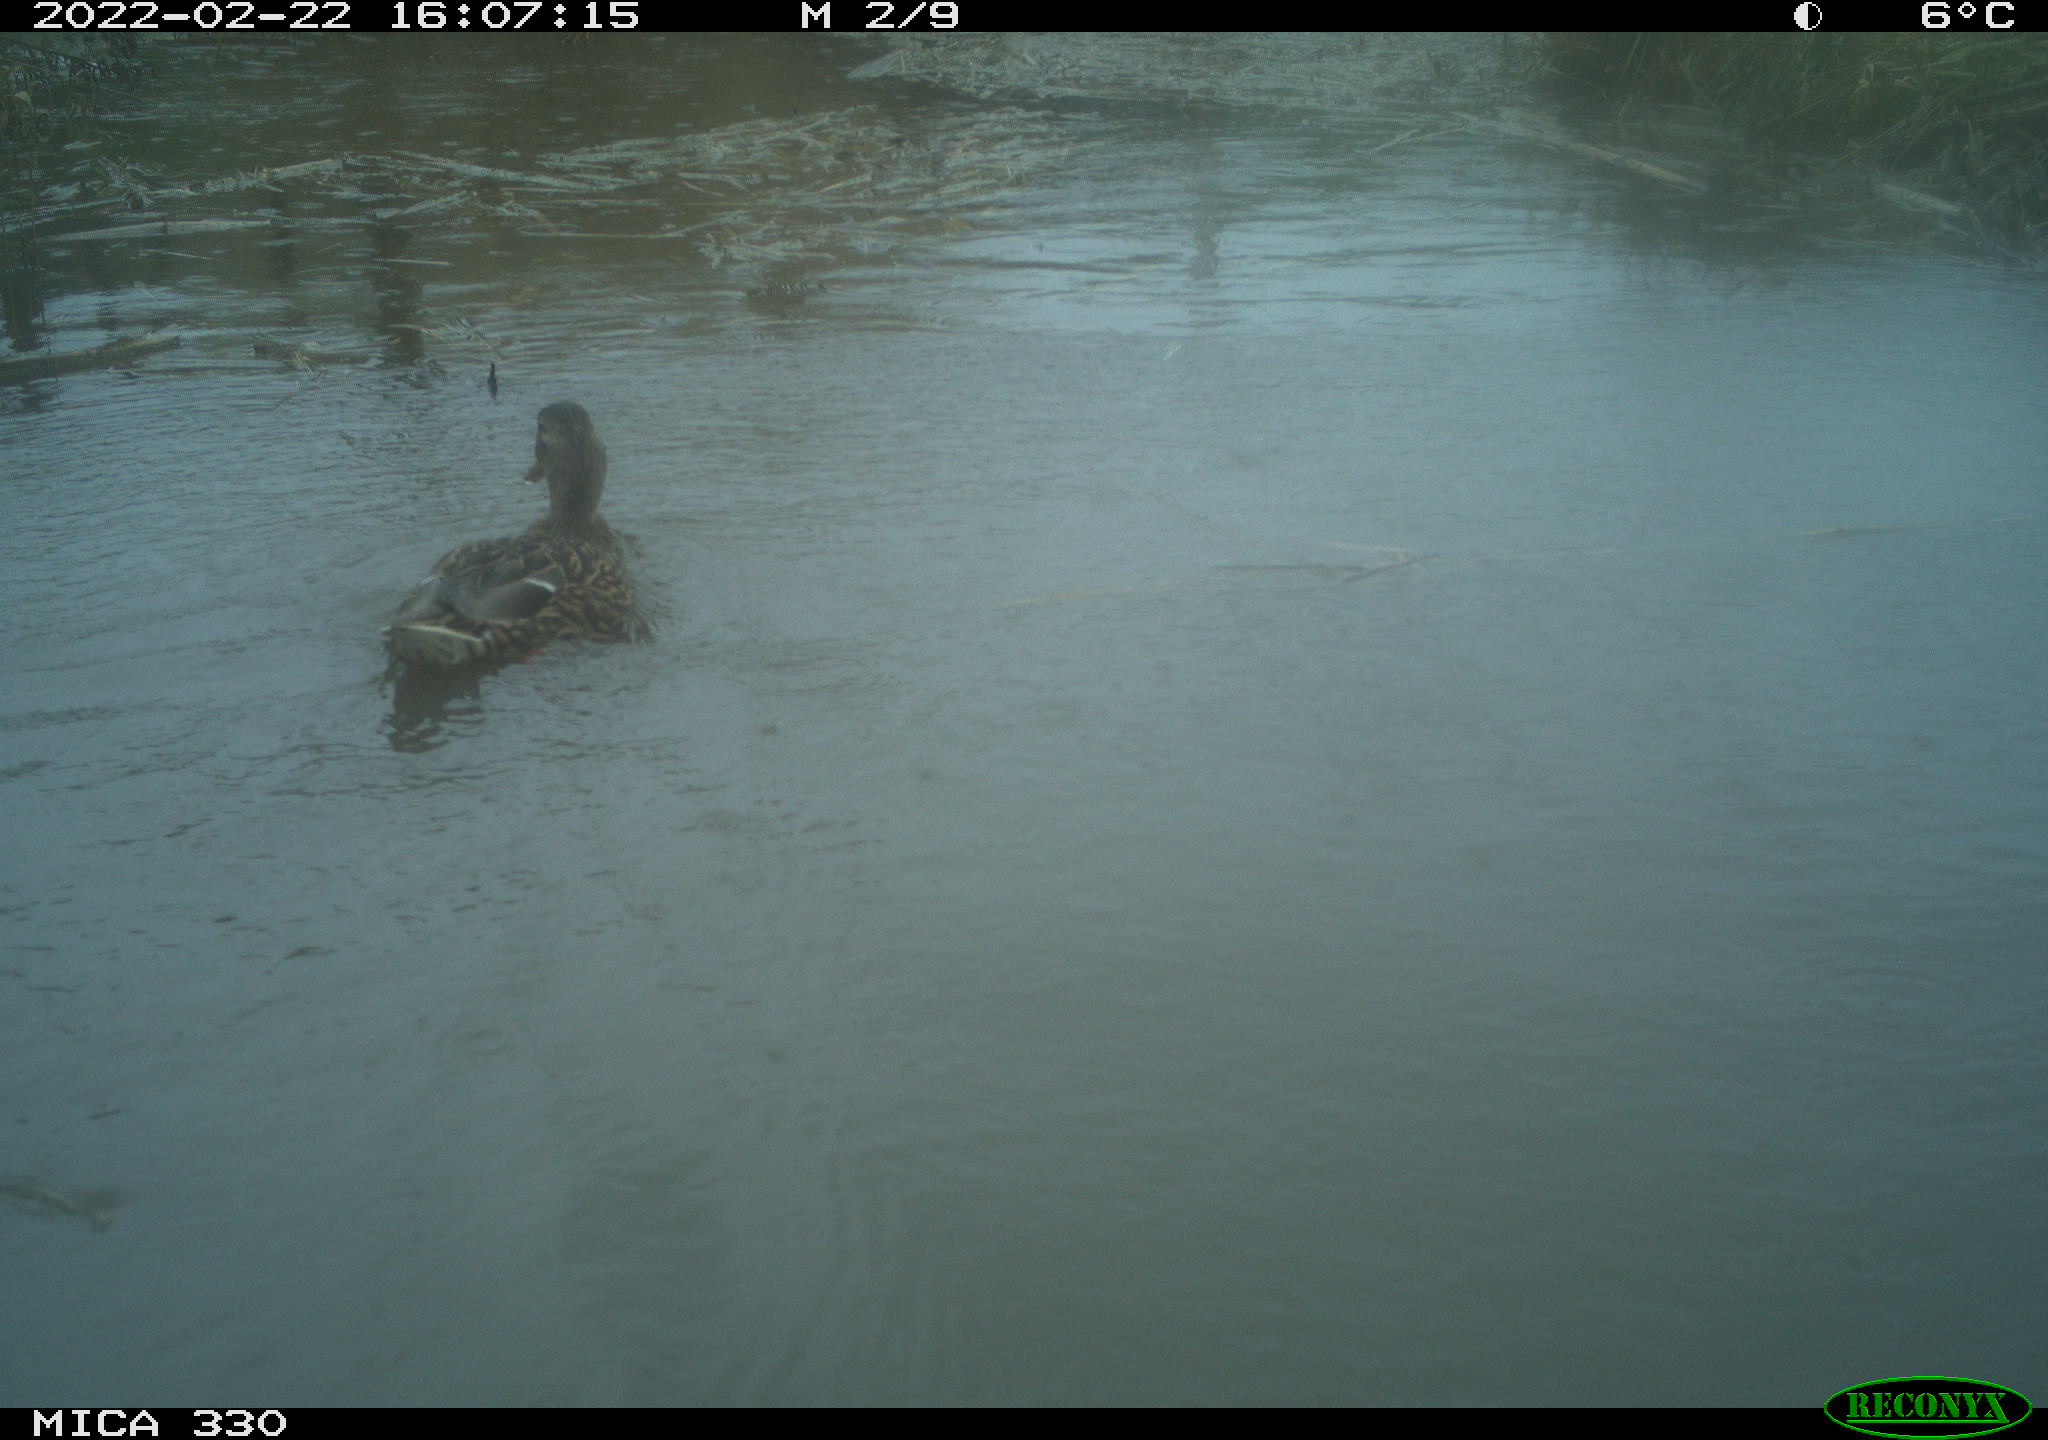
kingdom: Animalia
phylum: Chordata
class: Aves
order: Anseriformes
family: Anatidae
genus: Anas
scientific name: Anas platyrhynchos
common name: Mallard
